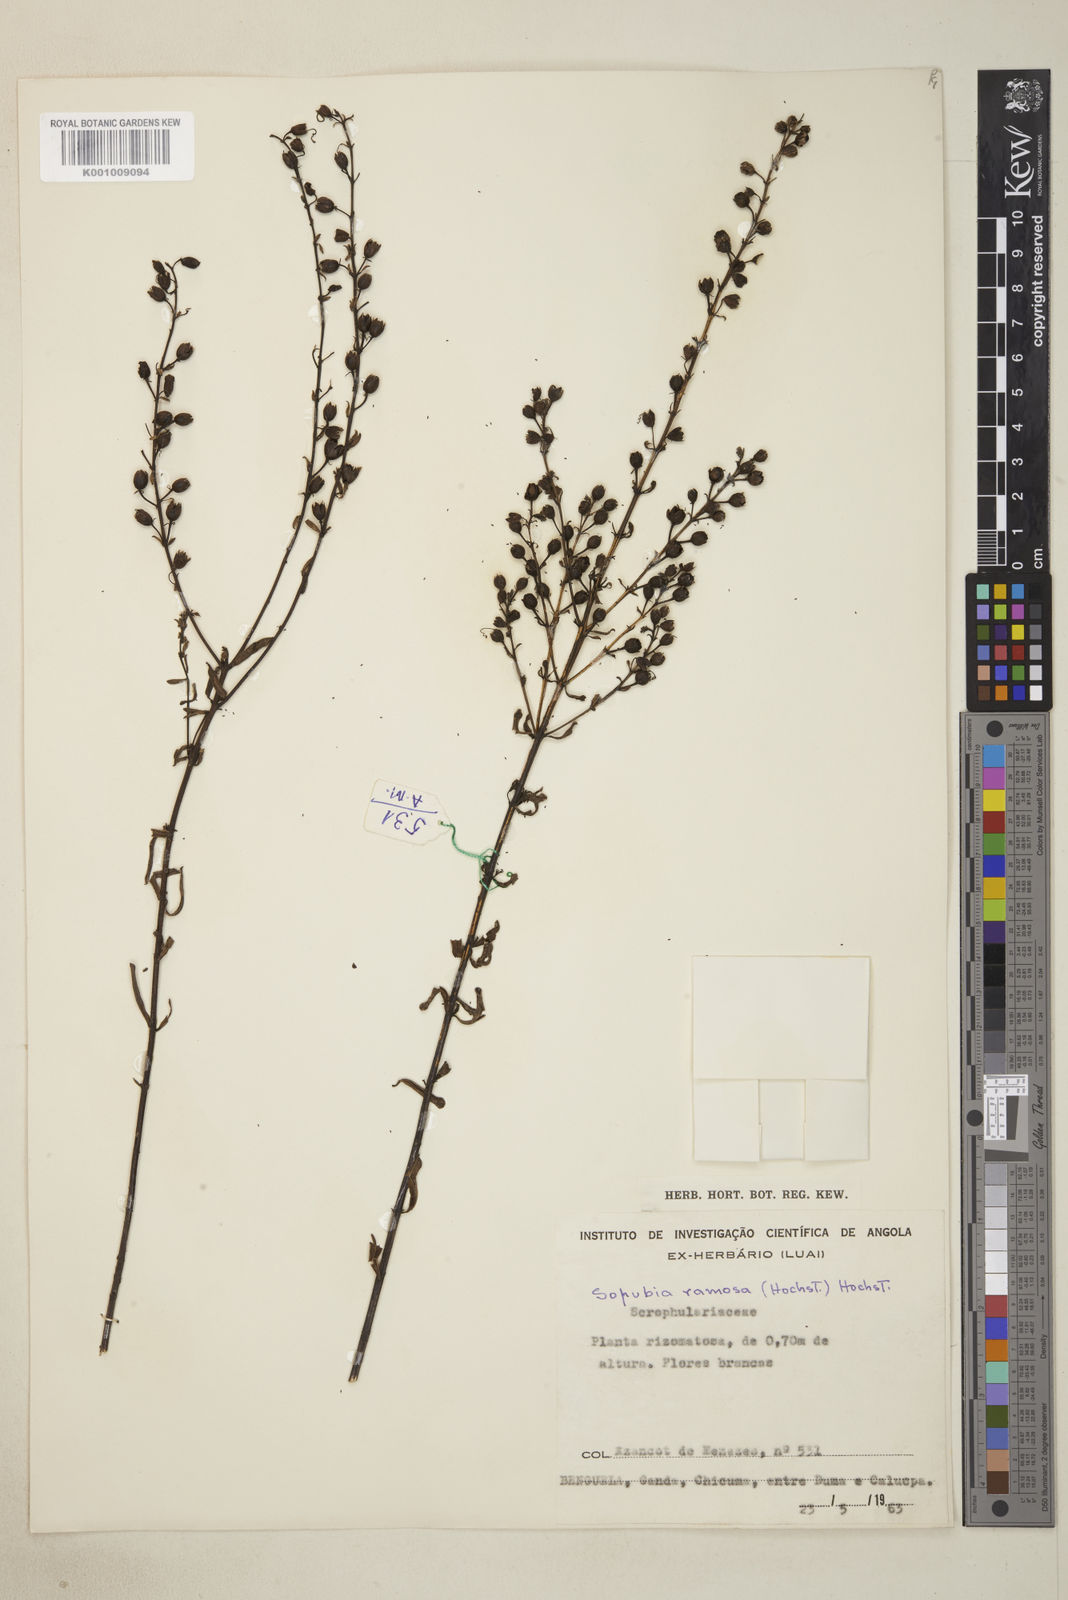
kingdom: Plantae
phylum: Tracheophyta
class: Magnoliopsida
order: Lamiales
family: Orobanchaceae
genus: Sopubia
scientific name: Sopubia ramosa
